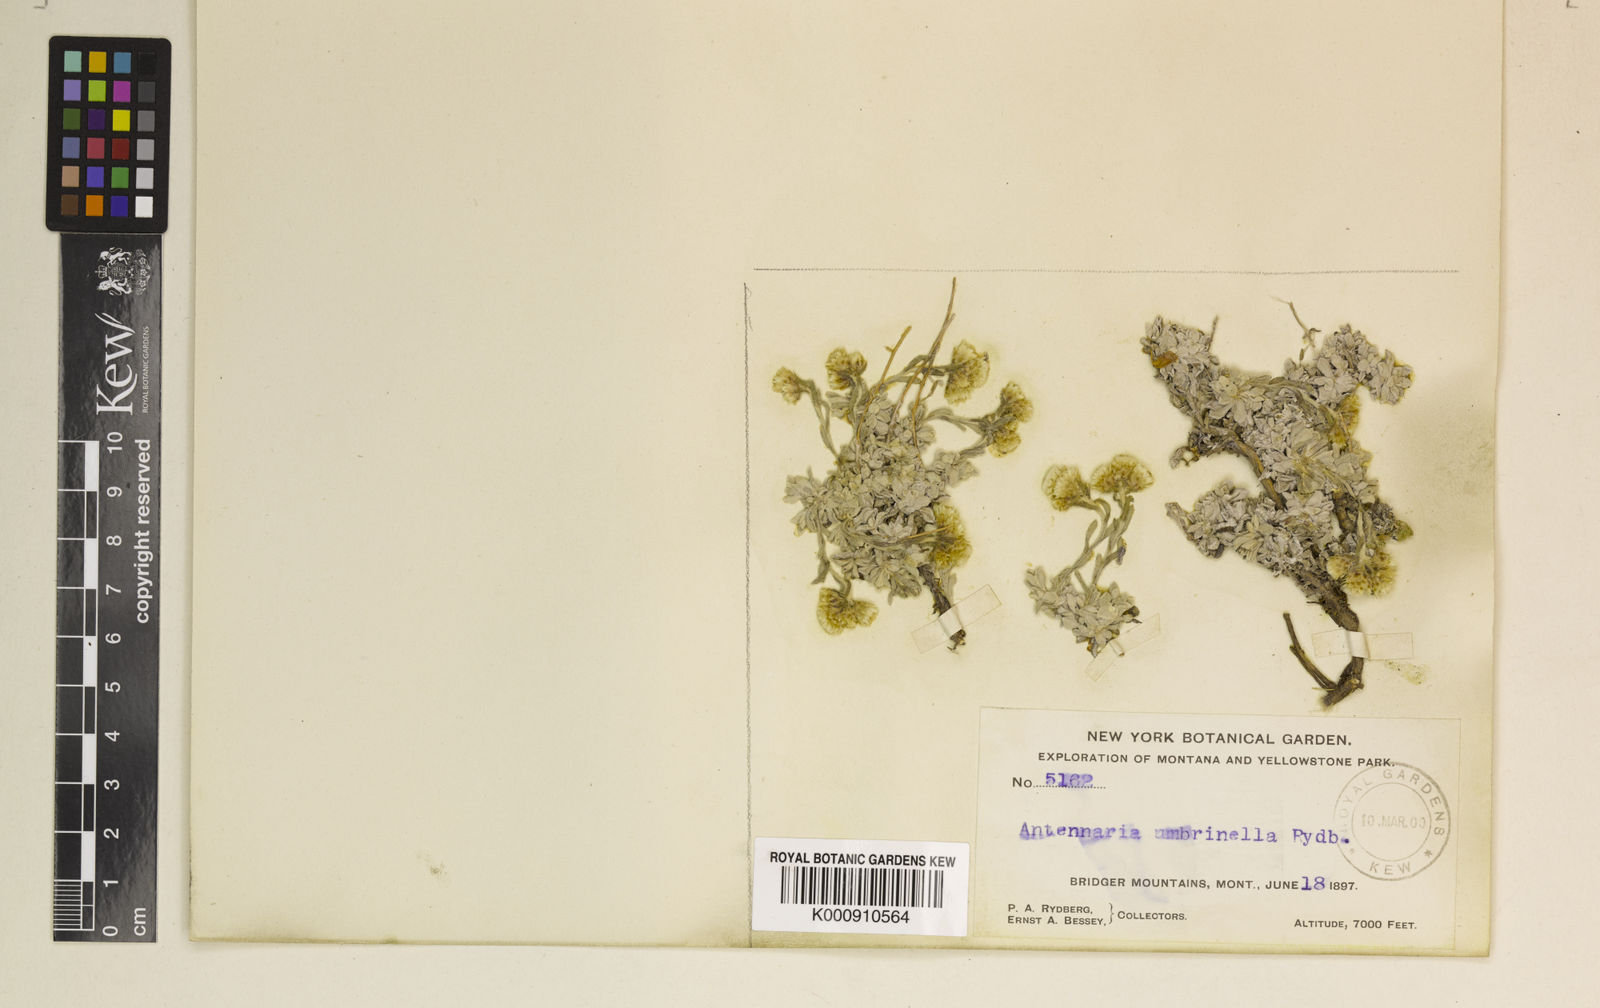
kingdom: Plantae
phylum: Tracheophyta
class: Magnoliopsida
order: Asterales
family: Asteraceae
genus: Antennaria
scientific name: Antennaria umbrinella
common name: Brown pussytoes
